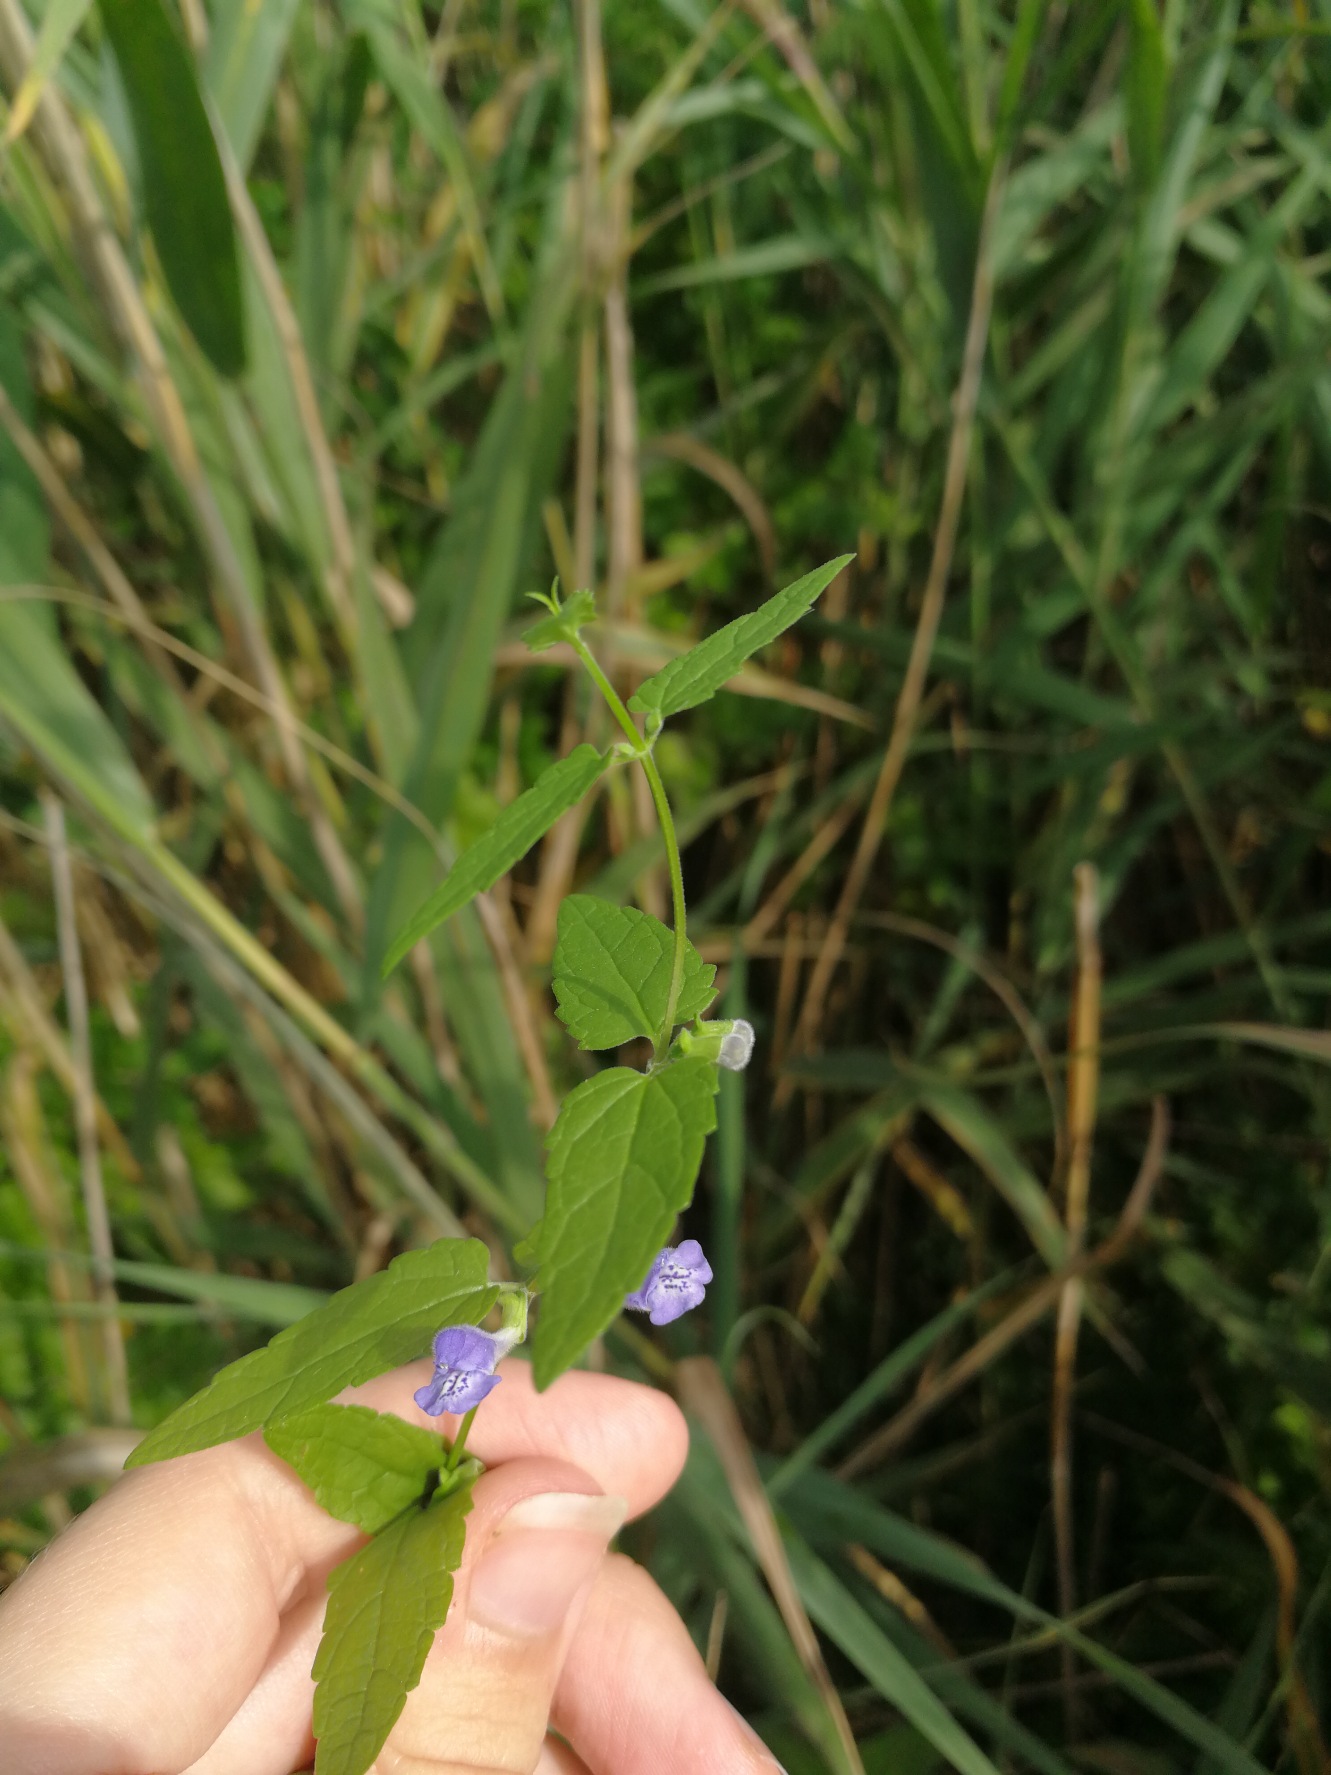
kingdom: Plantae
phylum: Tracheophyta
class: Magnoliopsida
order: Lamiales
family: Lamiaceae
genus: Scutellaria
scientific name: Scutellaria galericulata
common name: Almindelig skjolddrager
